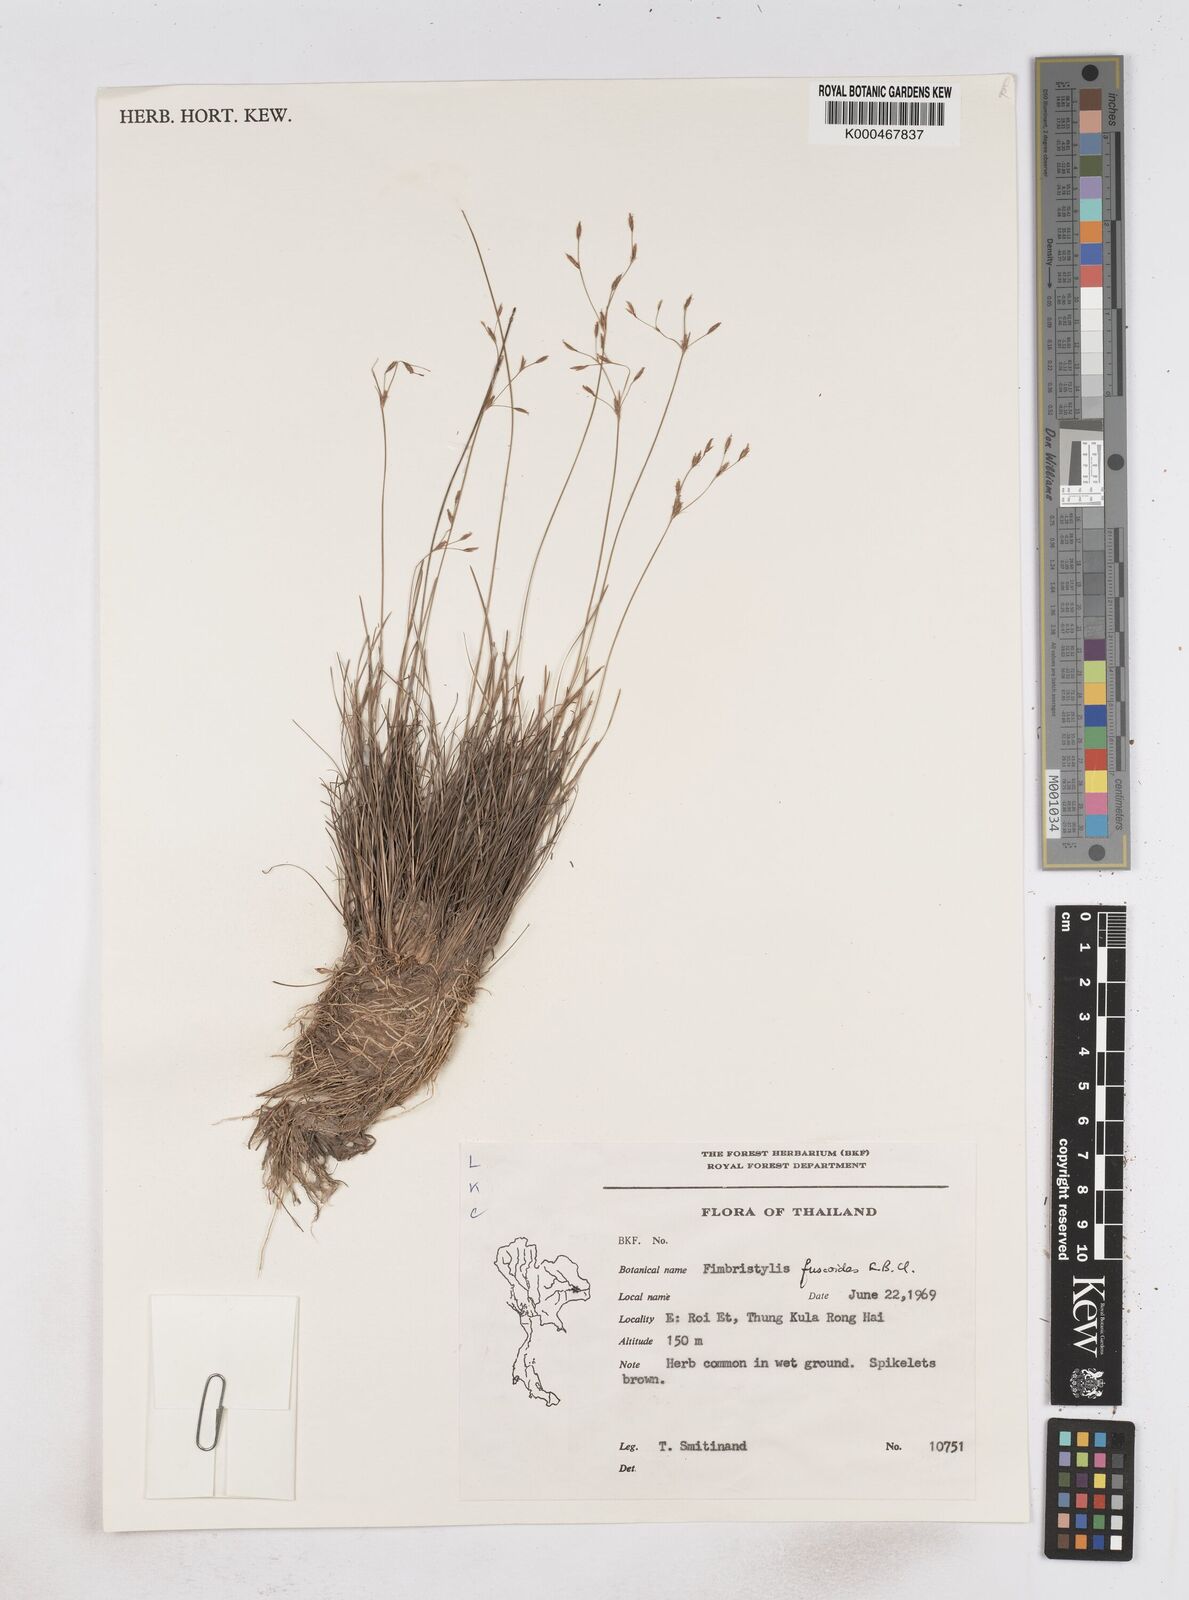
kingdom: Plantae
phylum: Tracheophyta
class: Liliopsida
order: Poales
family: Cyperaceae
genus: Fimbristylis
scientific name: Fimbristylis fuscoides
